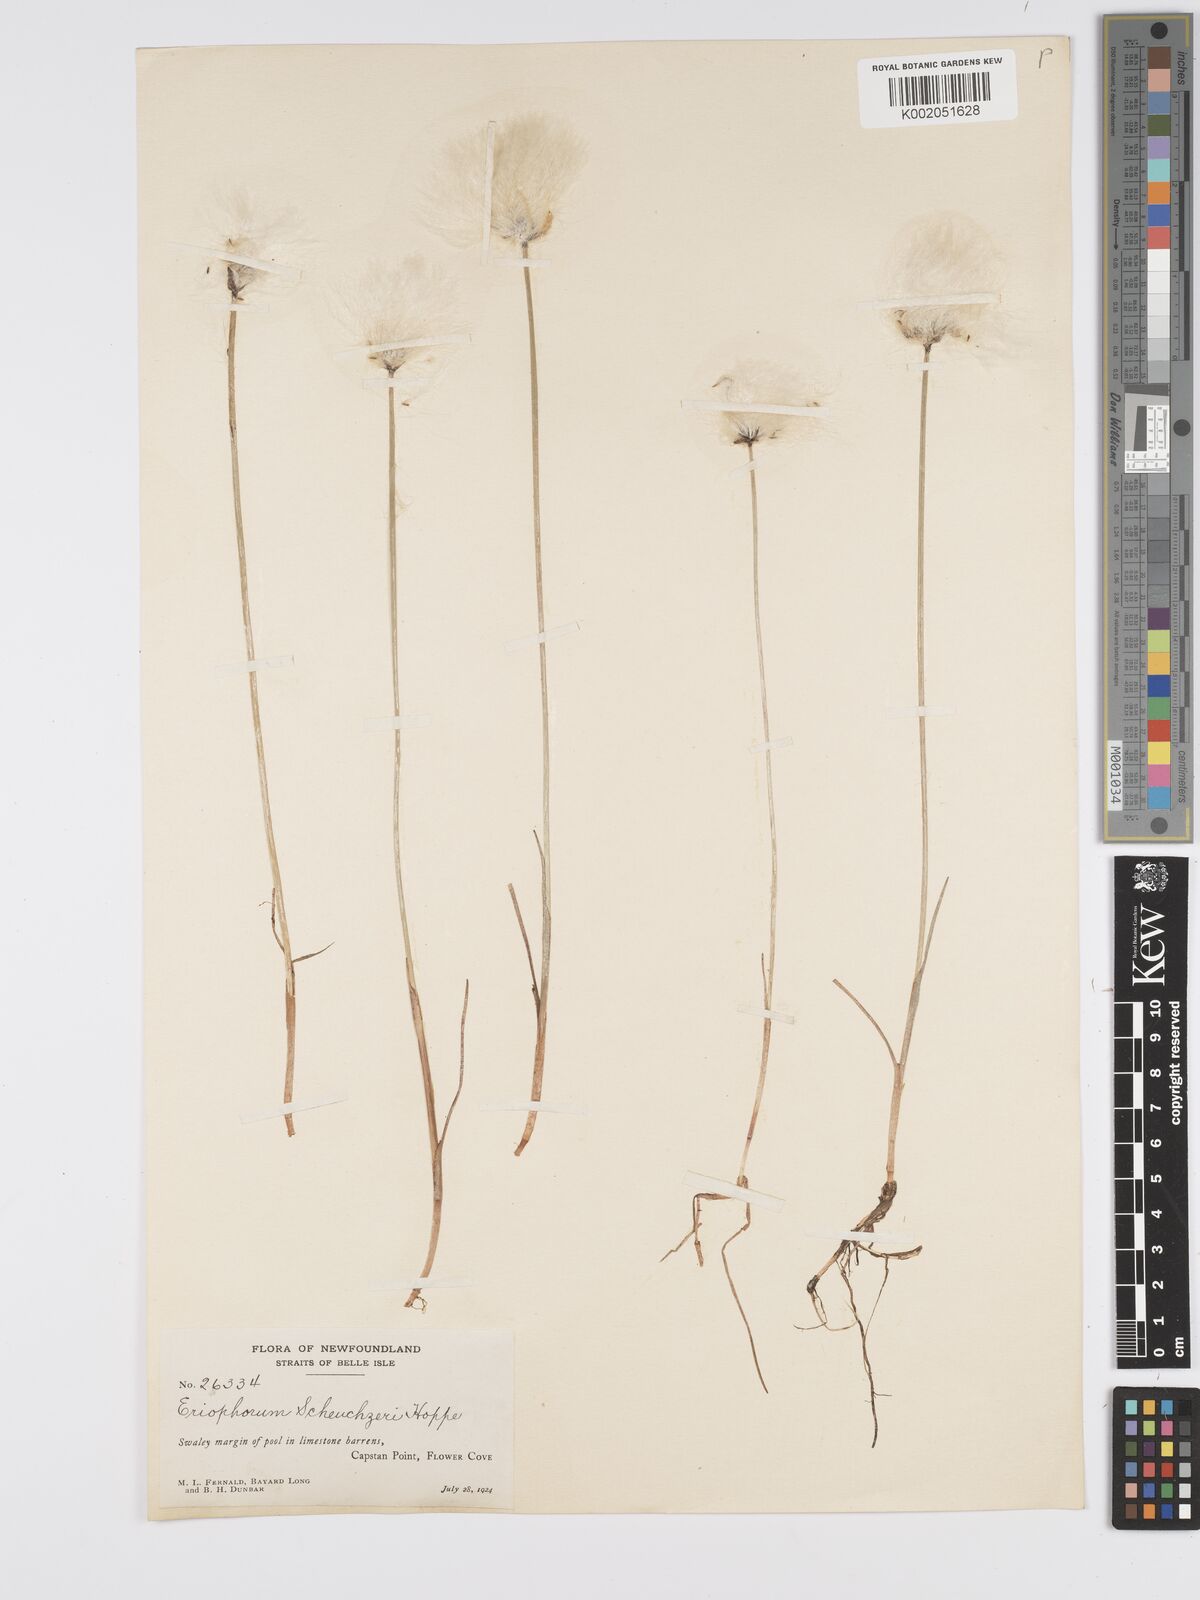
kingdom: Plantae
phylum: Tracheophyta
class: Liliopsida
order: Poales
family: Cyperaceae
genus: Eriophorum
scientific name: Eriophorum scheuchzeri
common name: Scheuchzer's cottongrass
